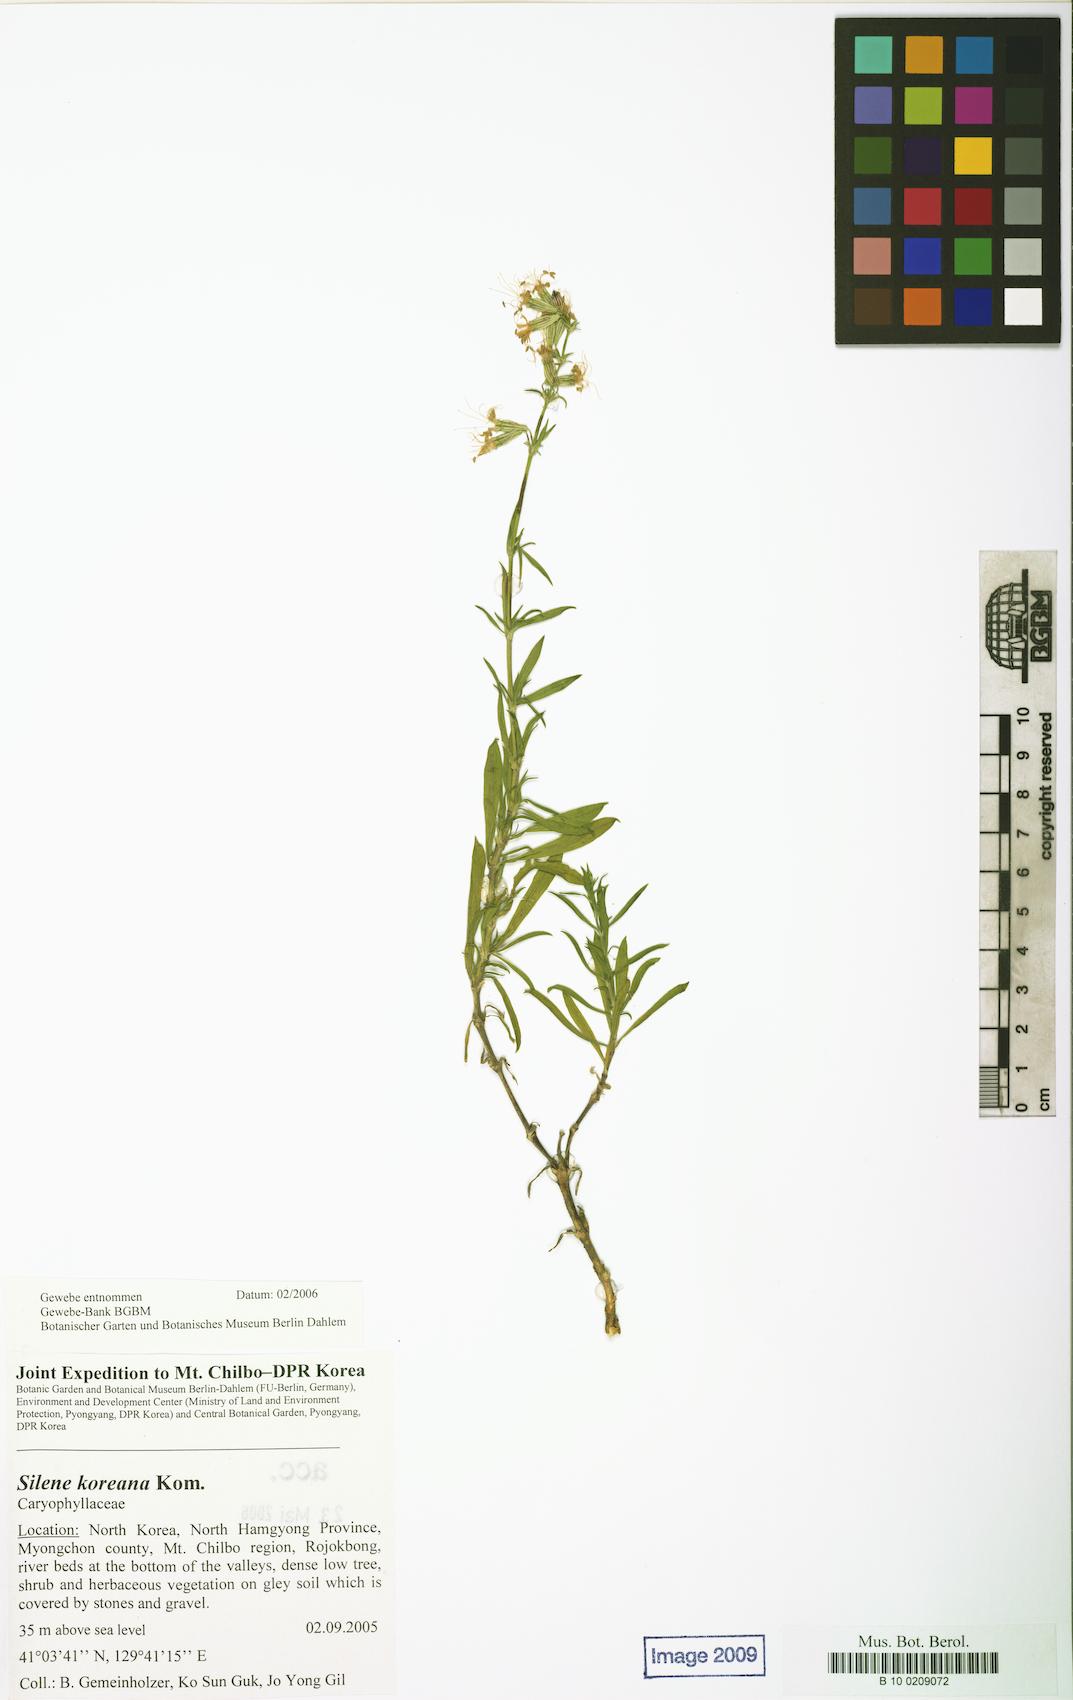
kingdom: Plantae
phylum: Tracheophyta
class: Magnoliopsida
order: Caryophyllales
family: Caryophyllaceae
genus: Silene
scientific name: Silene koreana
